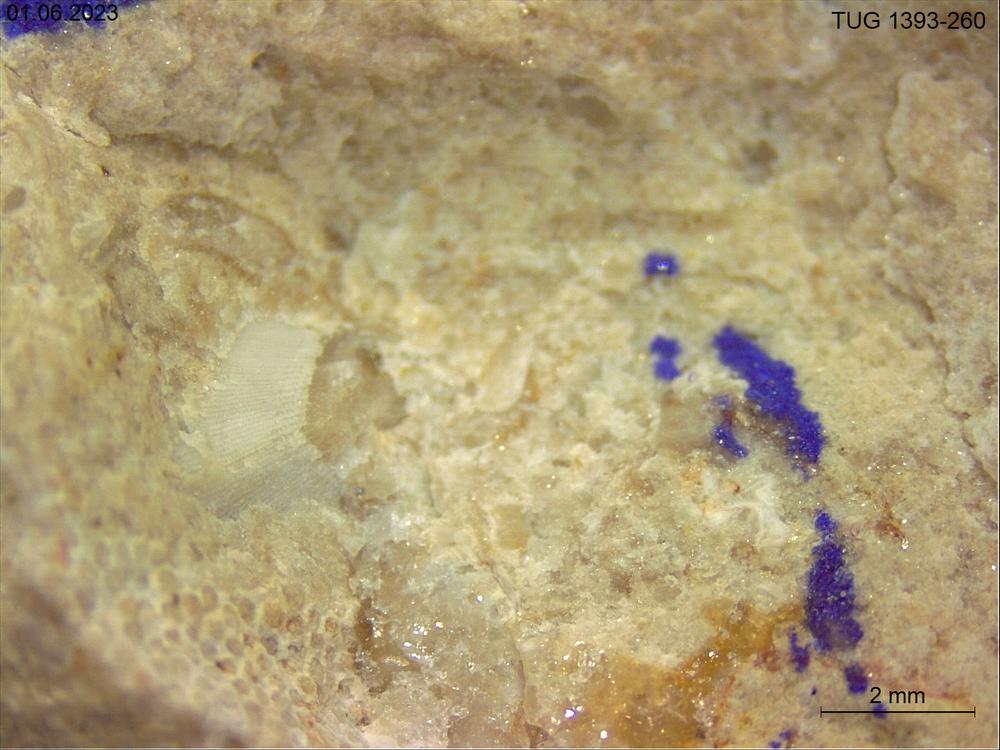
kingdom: Animalia
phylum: Mollusca
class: Rostroconchia
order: Conocardiida
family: Hippocardiidae
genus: Hippocardia
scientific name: Hippocardia
